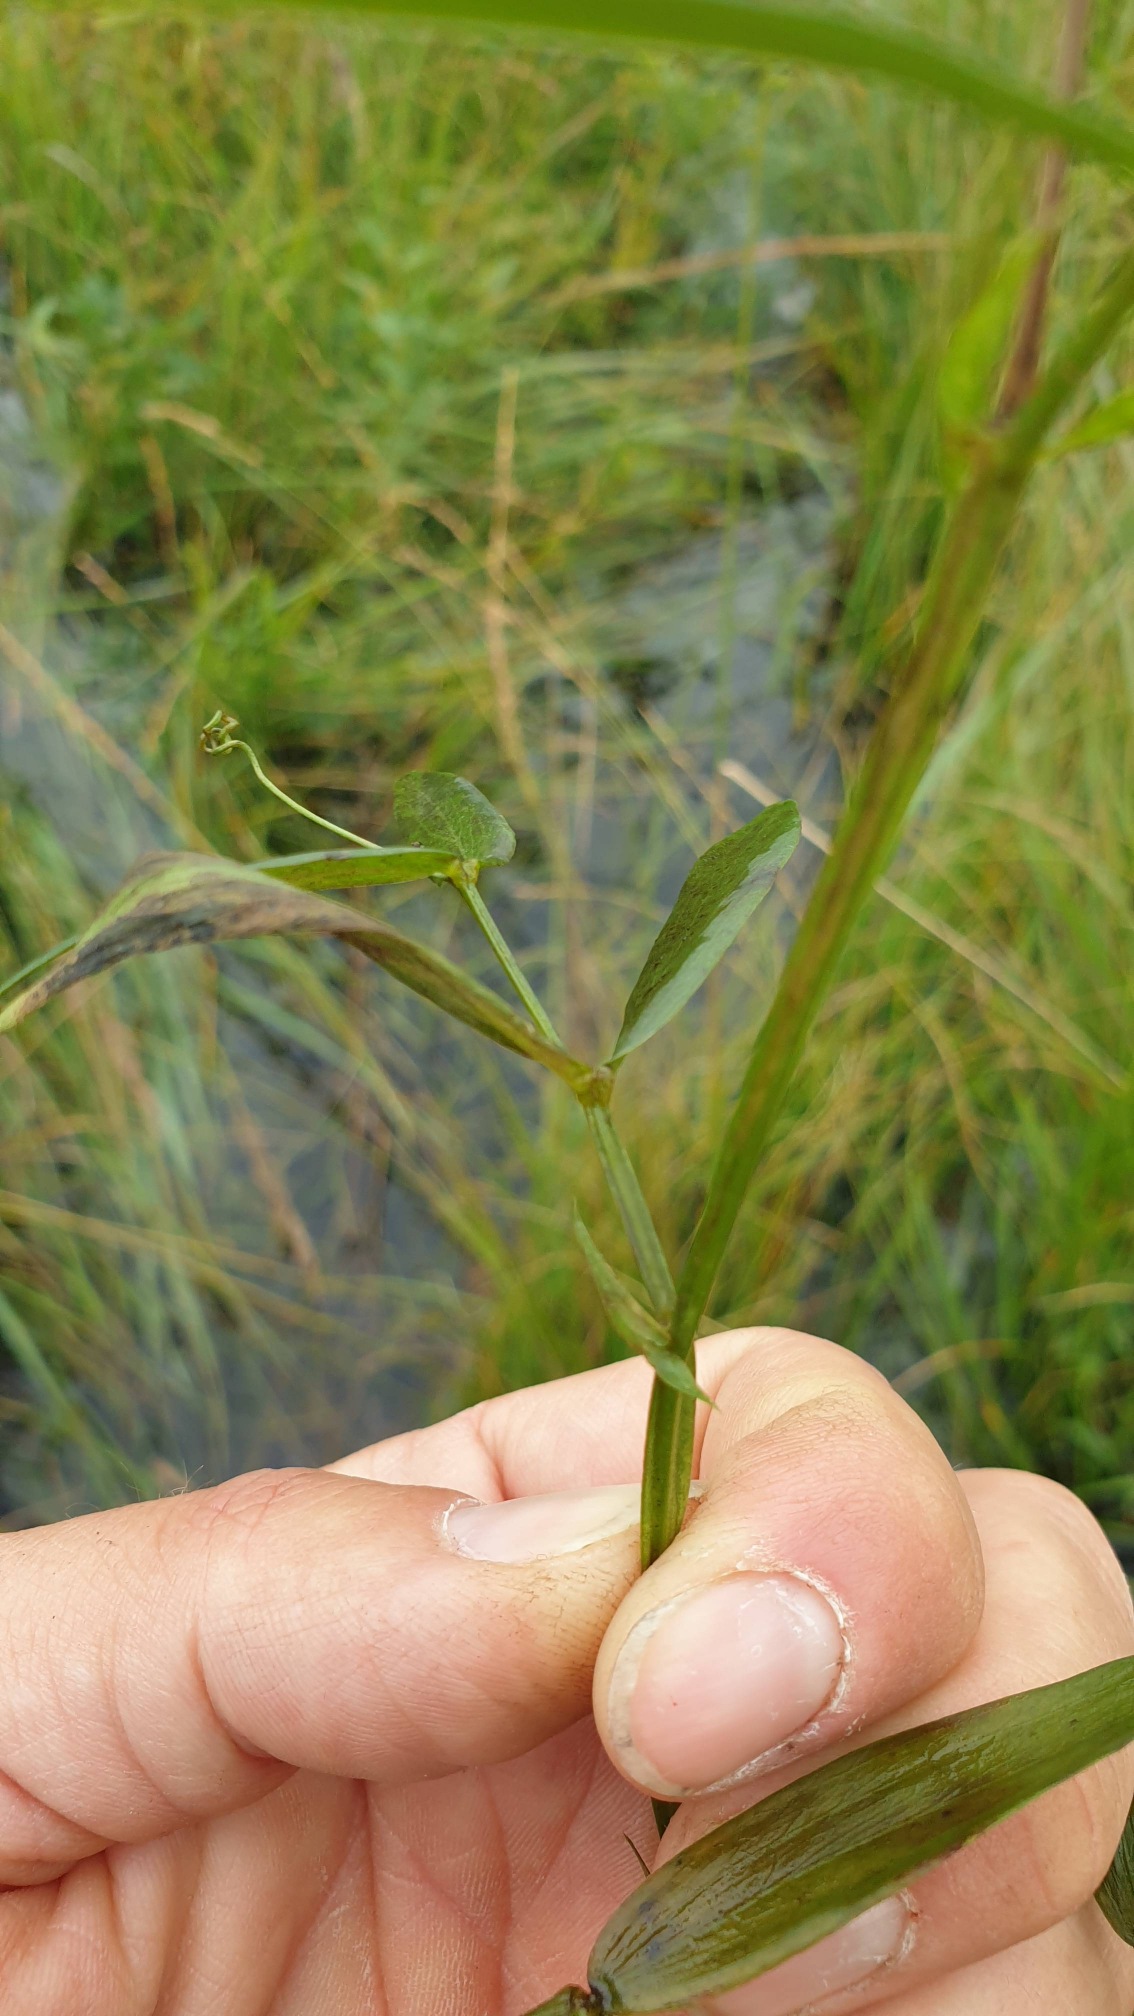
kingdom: Plantae
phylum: Tracheophyta
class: Magnoliopsida
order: Fabales
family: Fabaceae
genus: Lathyrus
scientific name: Lathyrus palustris
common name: Kær-fladbælg
